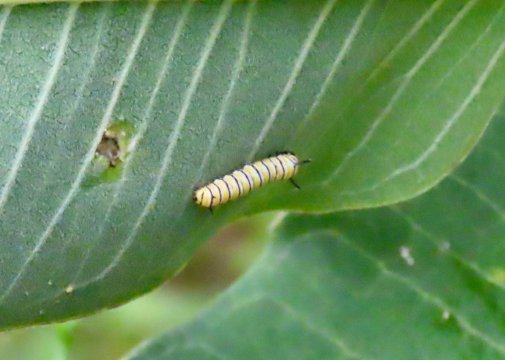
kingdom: Animalia
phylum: Arthropoda
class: Insecta
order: Lepidoptera
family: Nymphalidae
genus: Danaus
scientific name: Danaus plexippus
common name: Monarch
